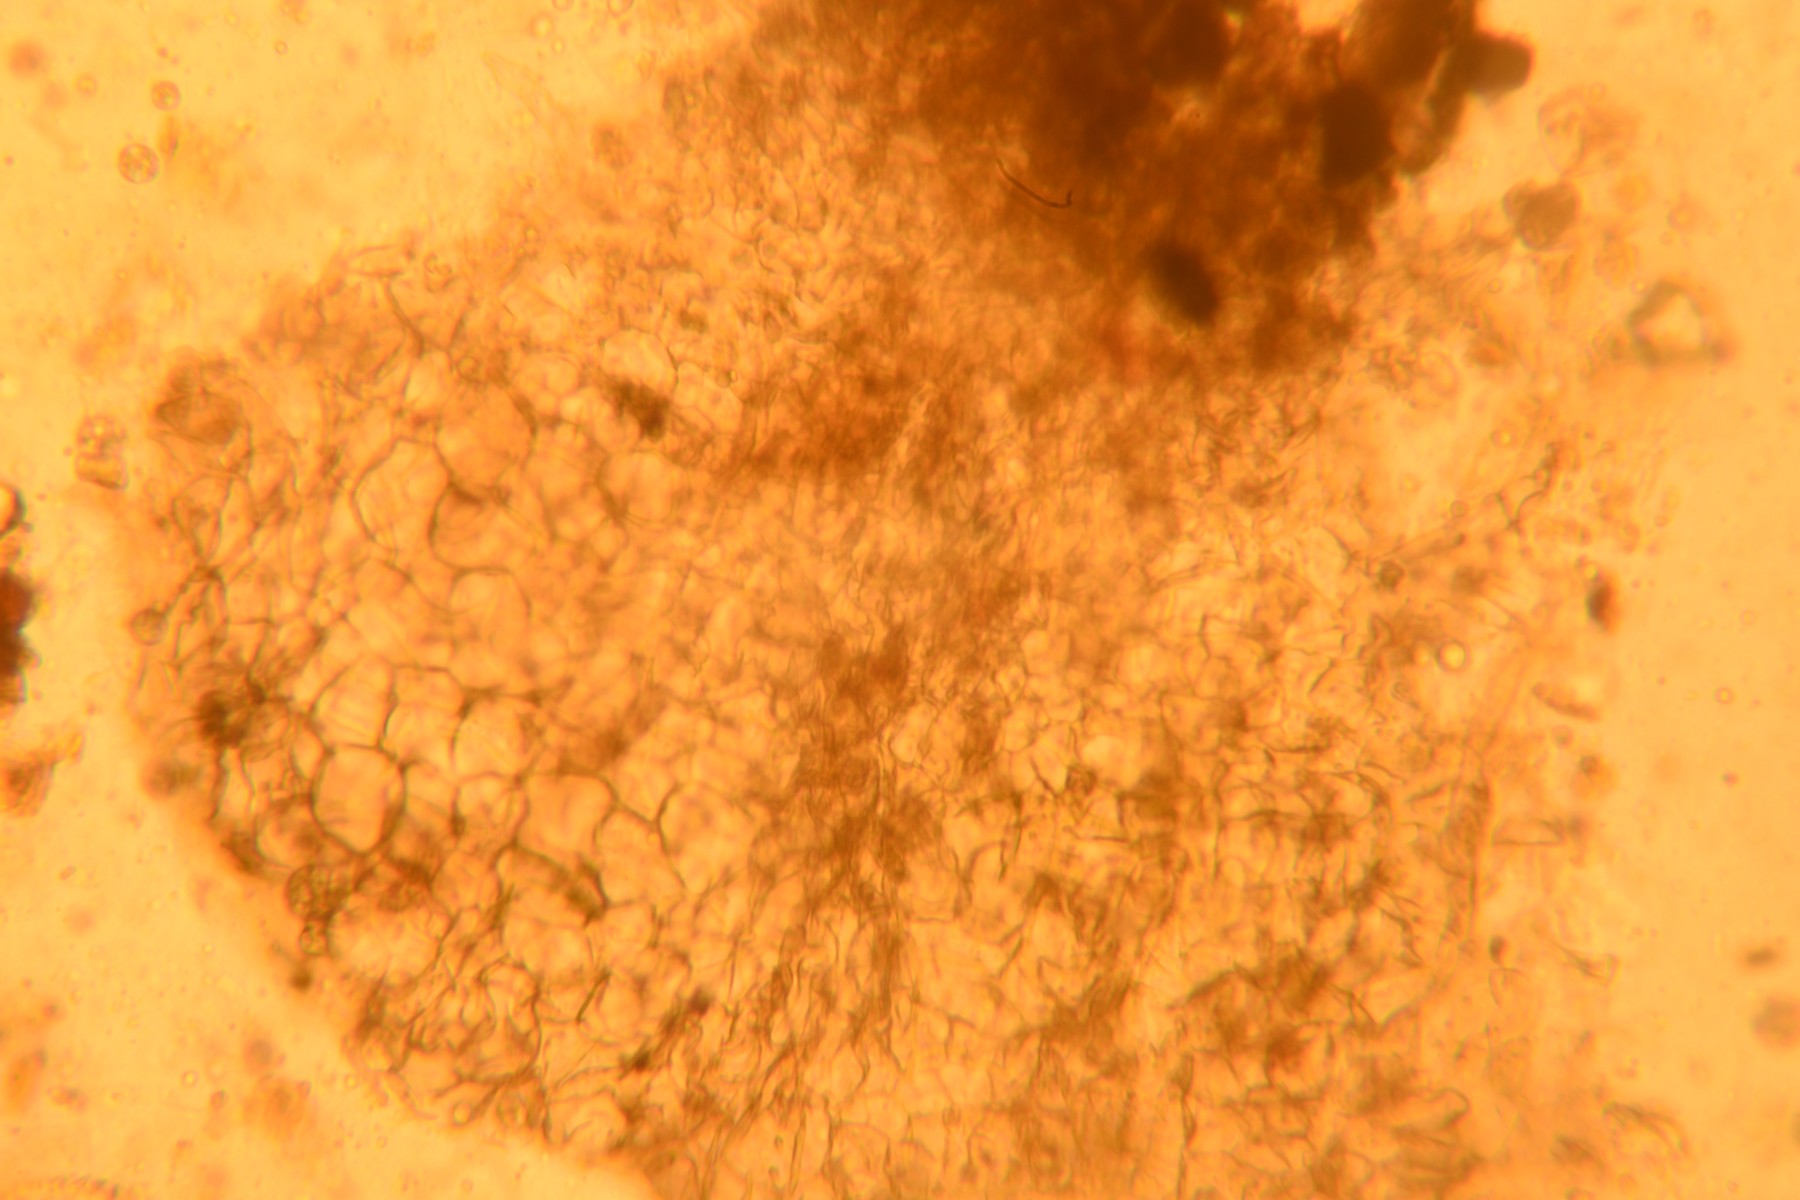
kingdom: Fungi
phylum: Ascomycota
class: Sordariomycetes
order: Sordariales
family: Lasiosphaeriaceae
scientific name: Lasiosphaeriaceae
